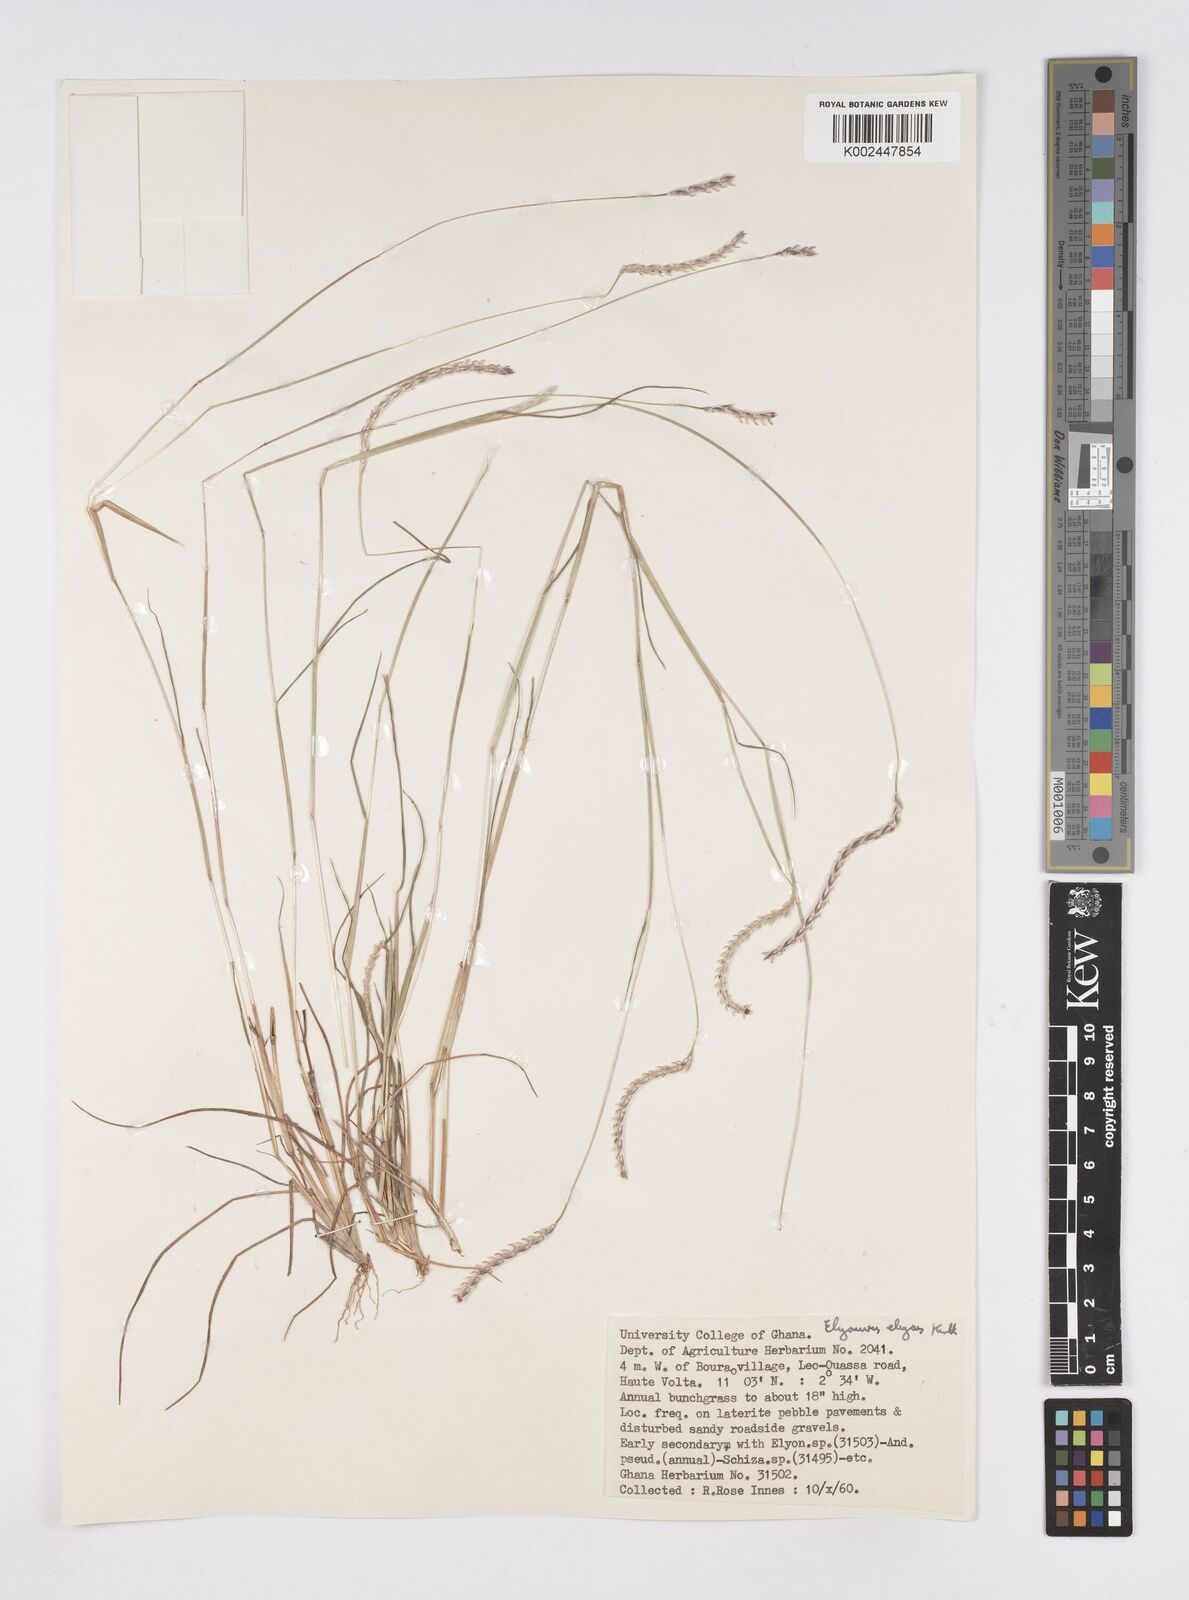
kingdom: Plantae
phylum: Tracheophyta
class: Liliopsida
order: Poales
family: Poaceae
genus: Elionurus
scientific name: Elionurus elegans
